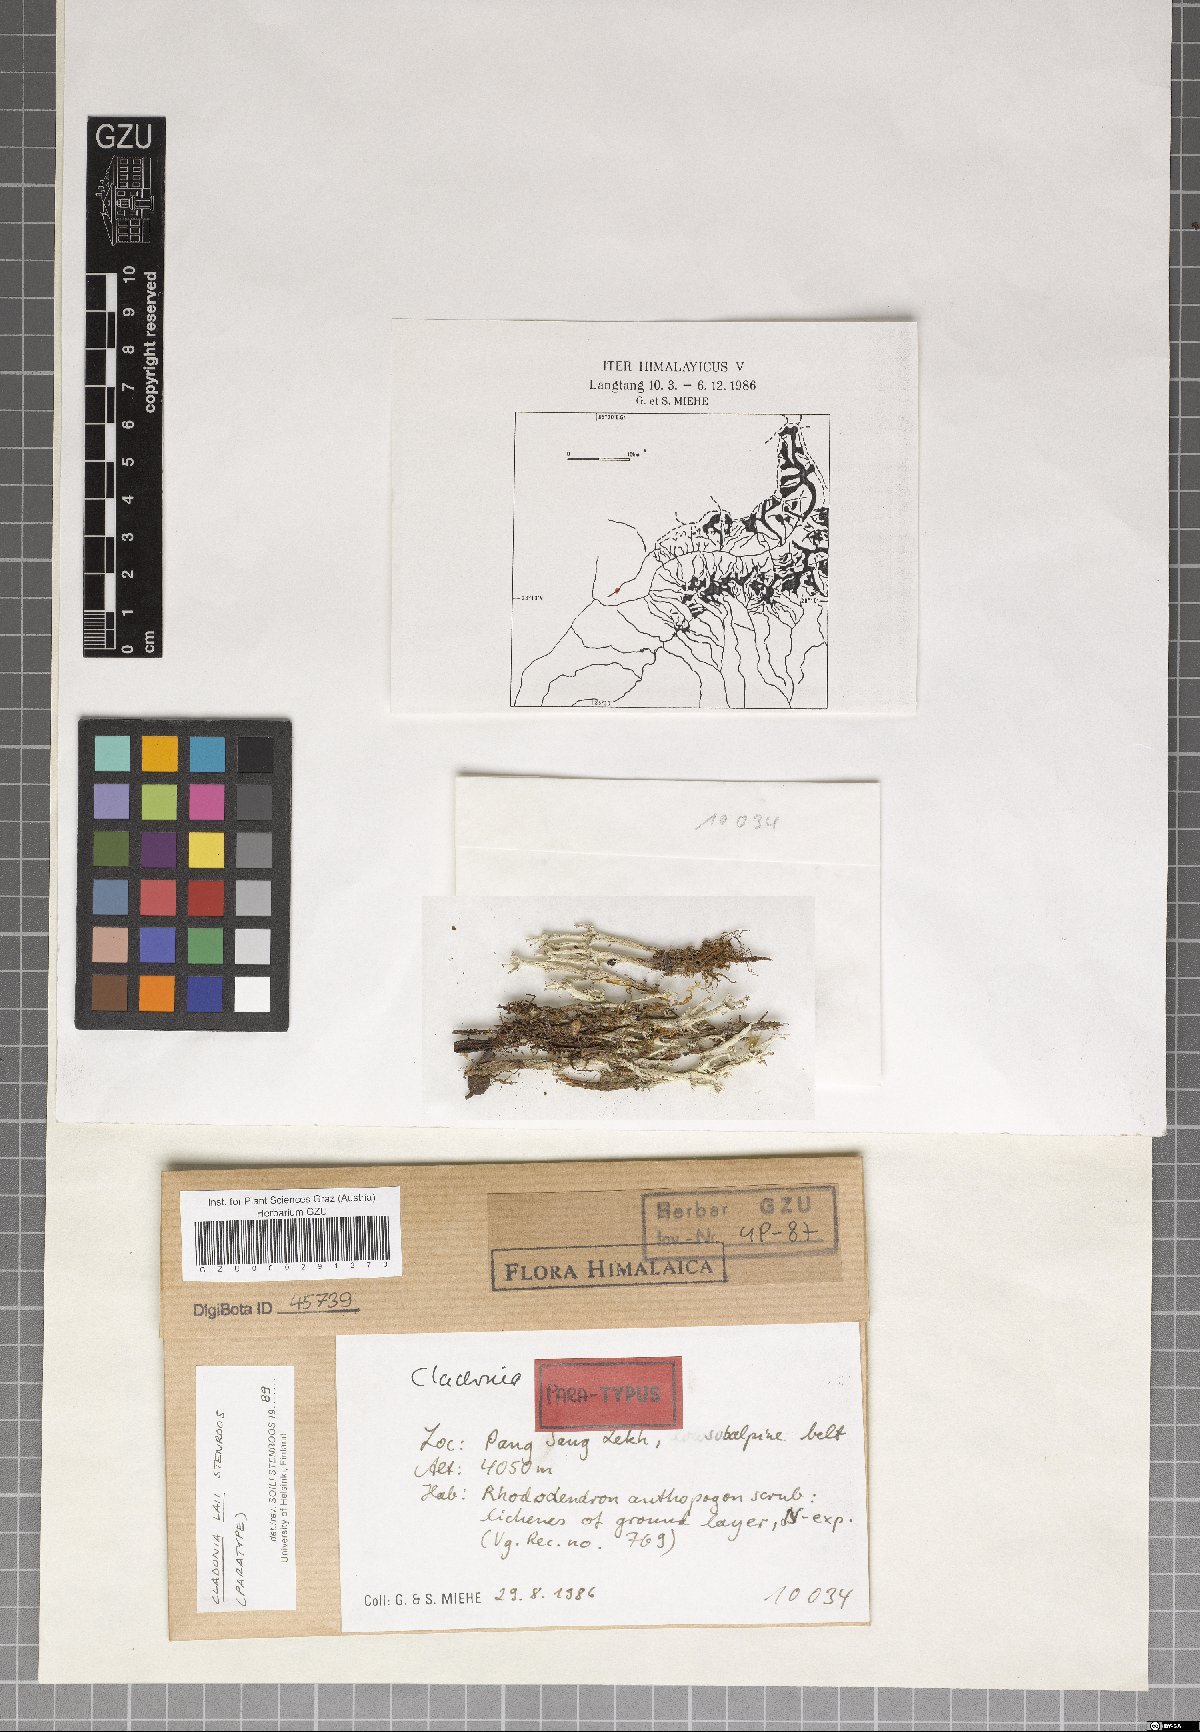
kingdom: Plantae
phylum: Marchantiophyta
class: Marchantiopsida
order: Marchantiales
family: Monocleaceae
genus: Monoclea
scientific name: Monoclea
